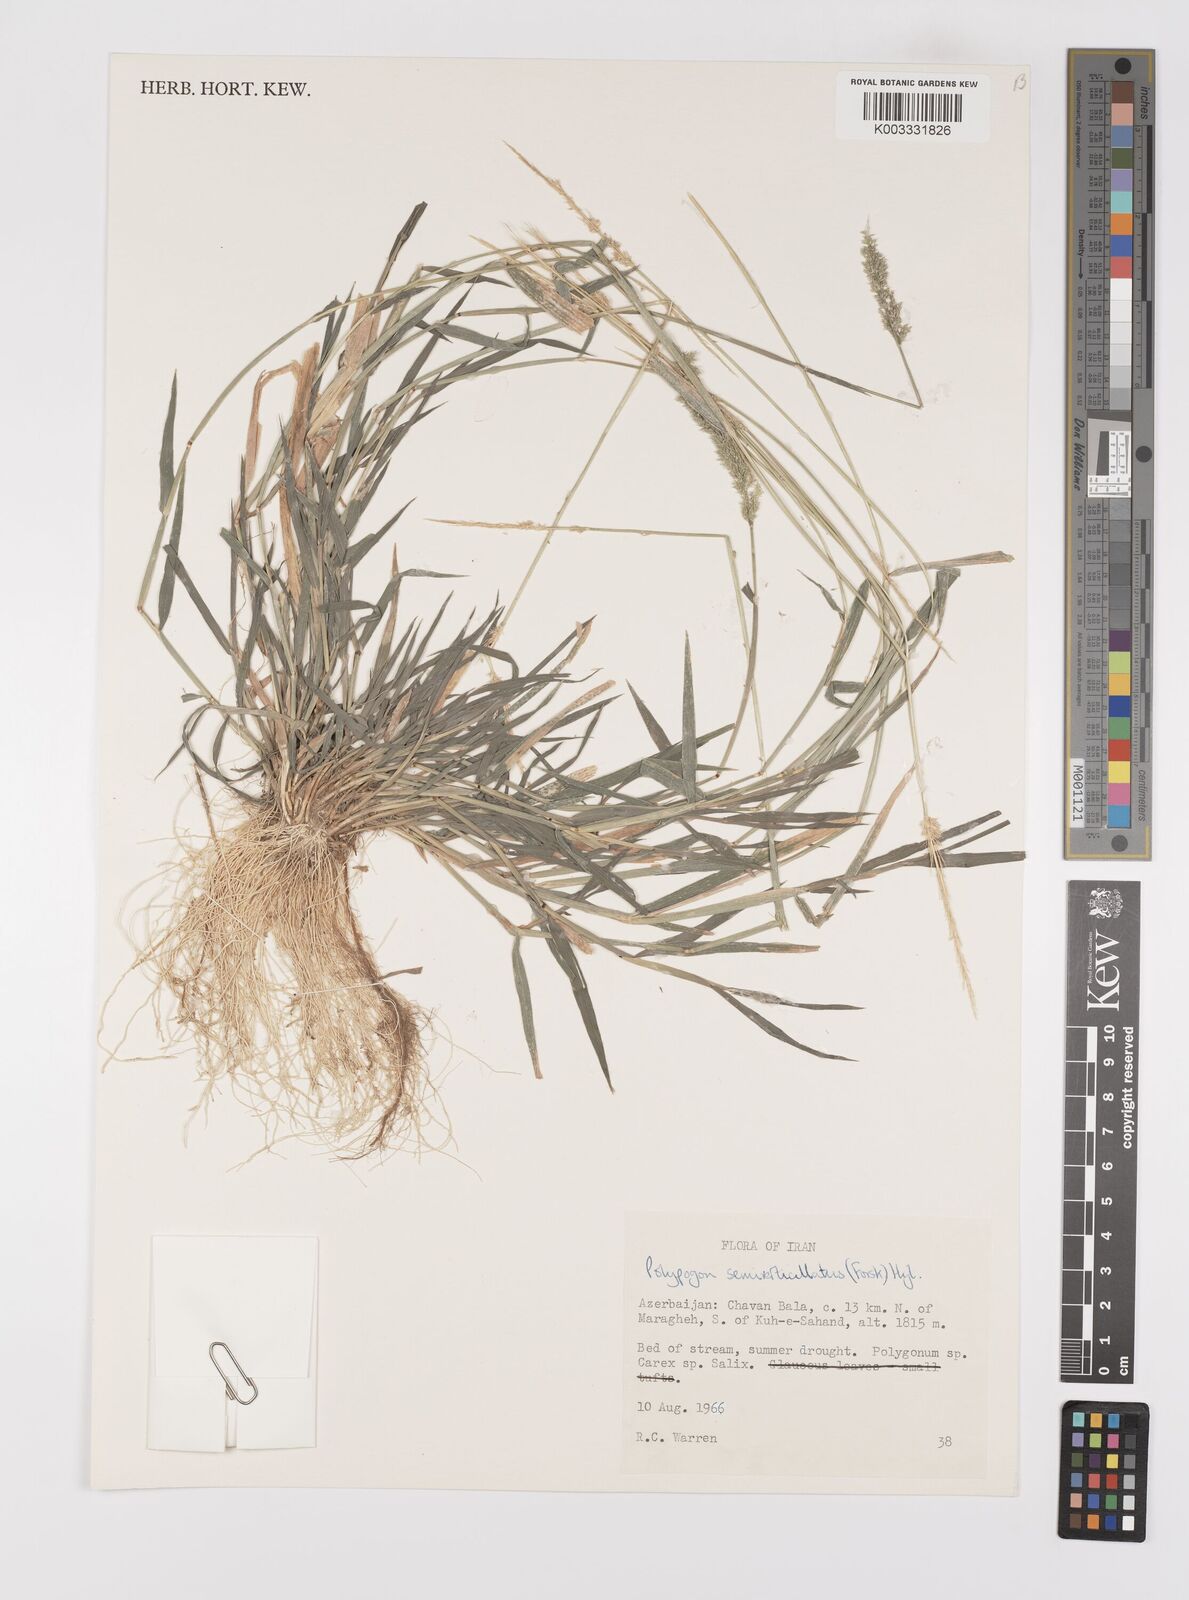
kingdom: Plantae
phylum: Tracheophyta
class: Liliopsida
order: Poales
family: Poaceae
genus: Polypogon
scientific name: Polypogon viridis
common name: Water bent
